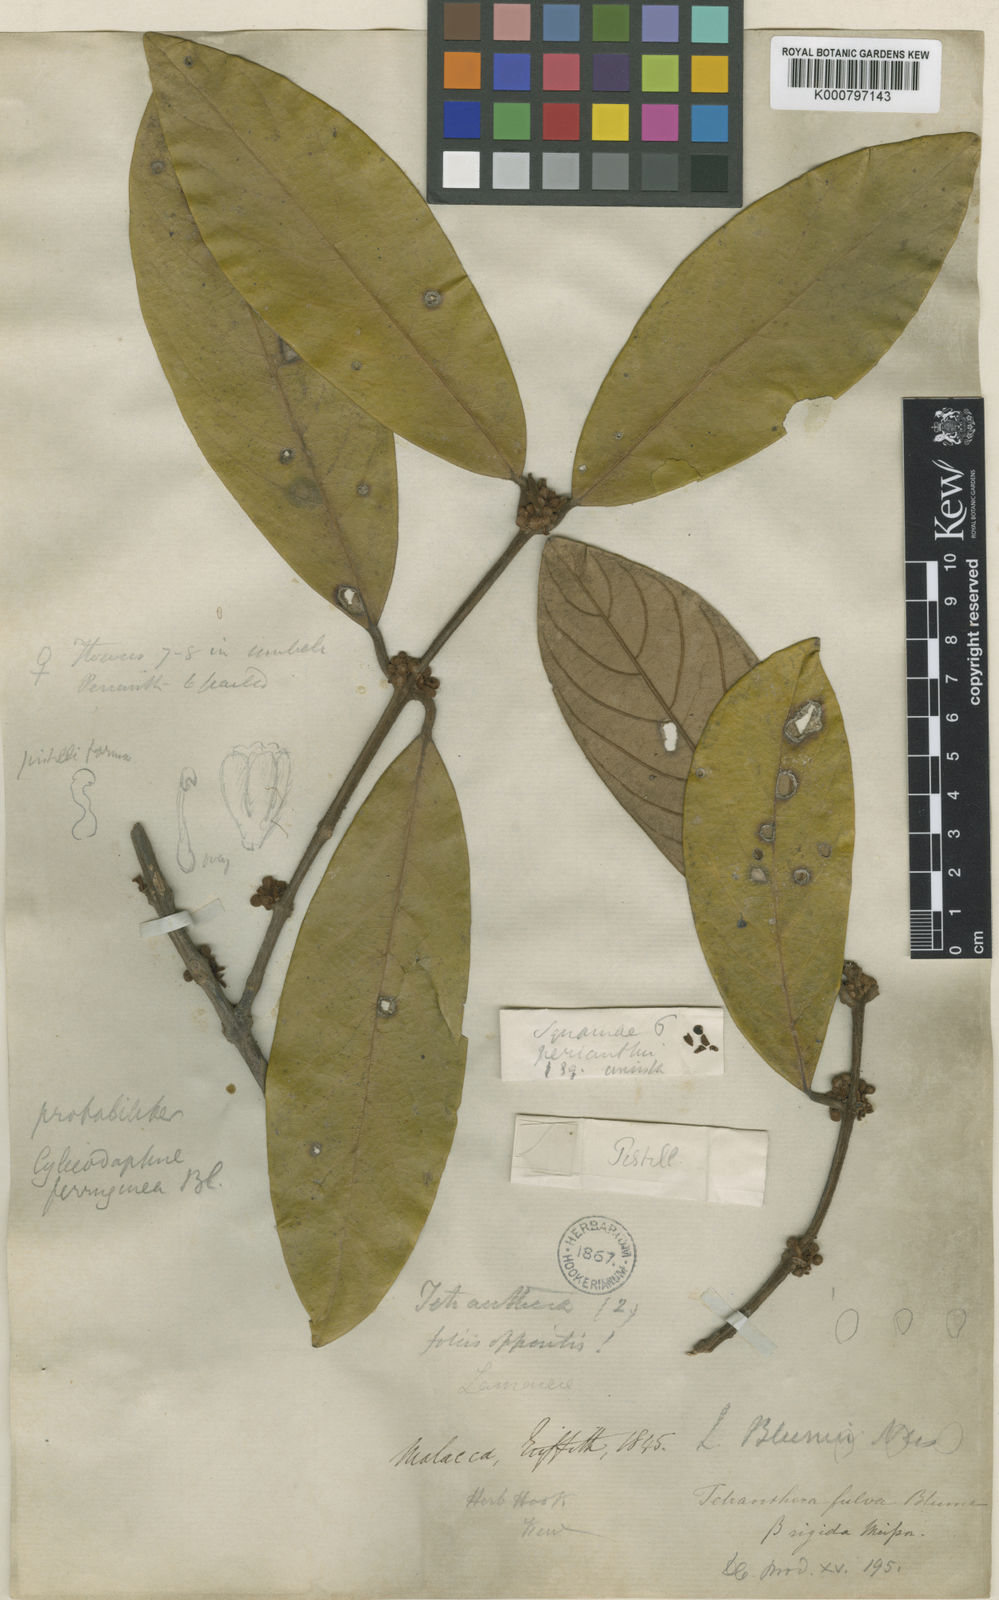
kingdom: Plantae
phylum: Tracheophyta
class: Magnoliopsida
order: Laurales
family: Lauraceae
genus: Litsea
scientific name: Litsea ferruginea
